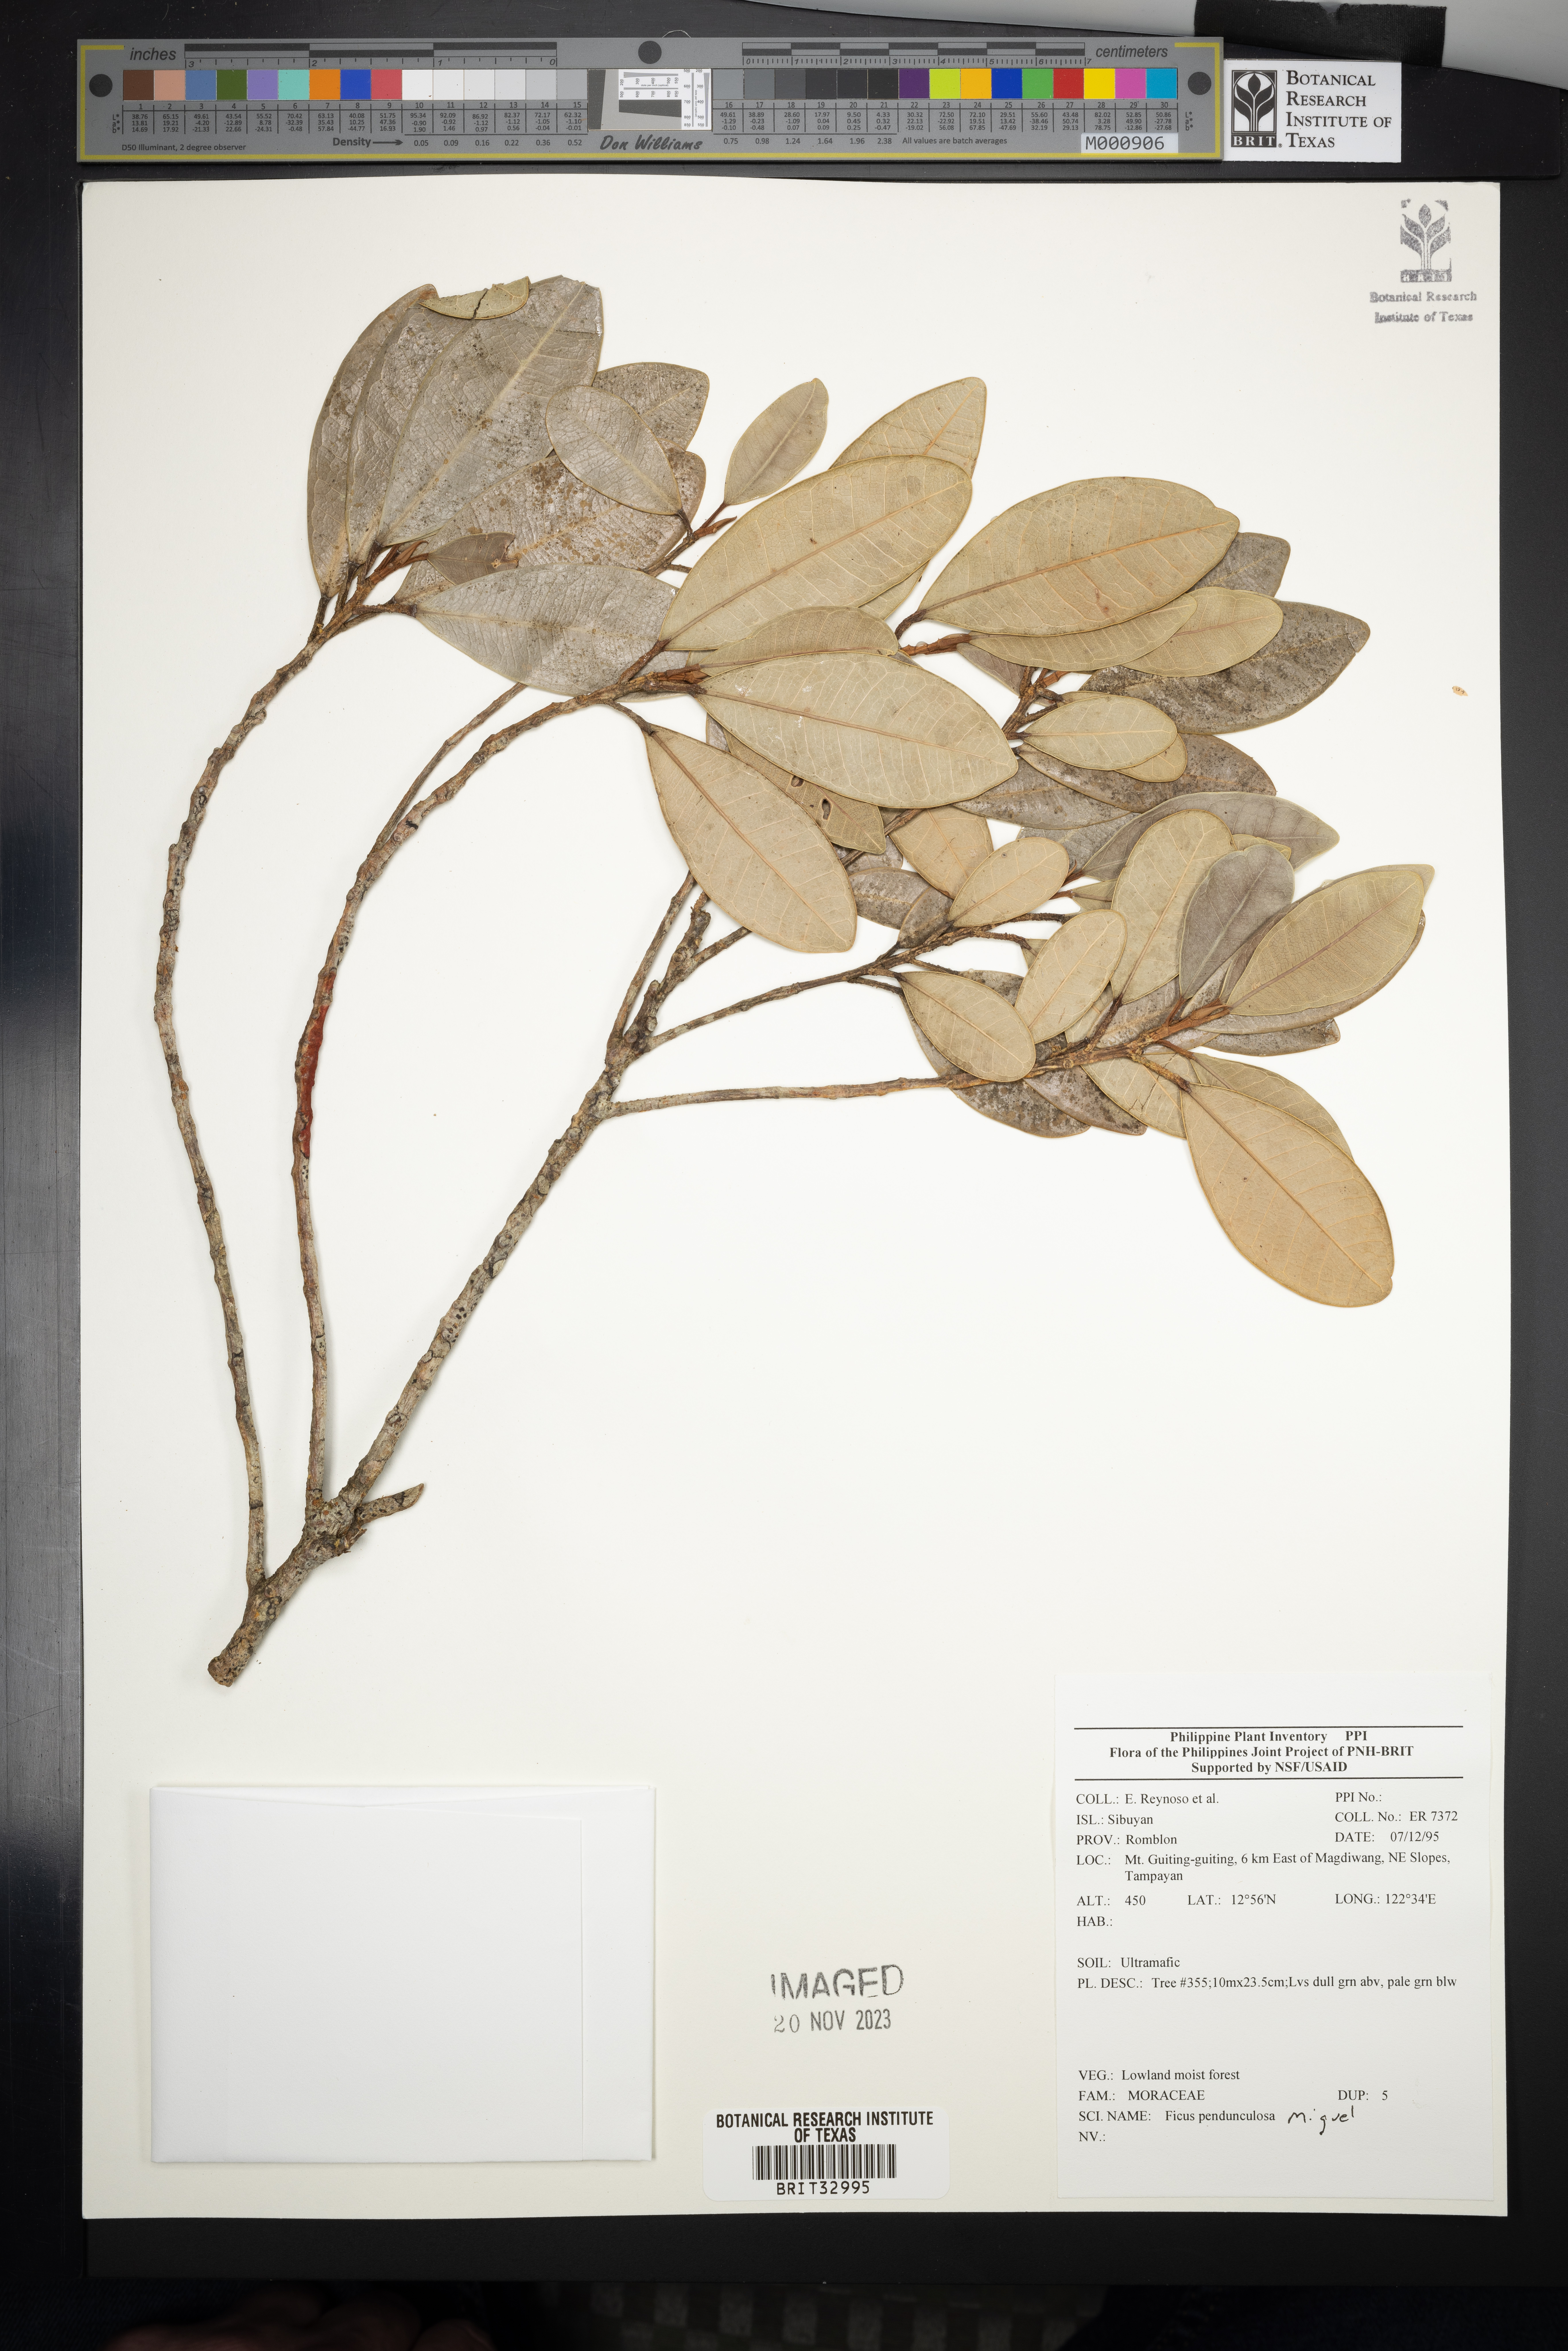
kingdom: Plantae
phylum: Tracheophyta
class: Magnoliopsida
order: Rosales
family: Moraceae
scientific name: Moraceae
